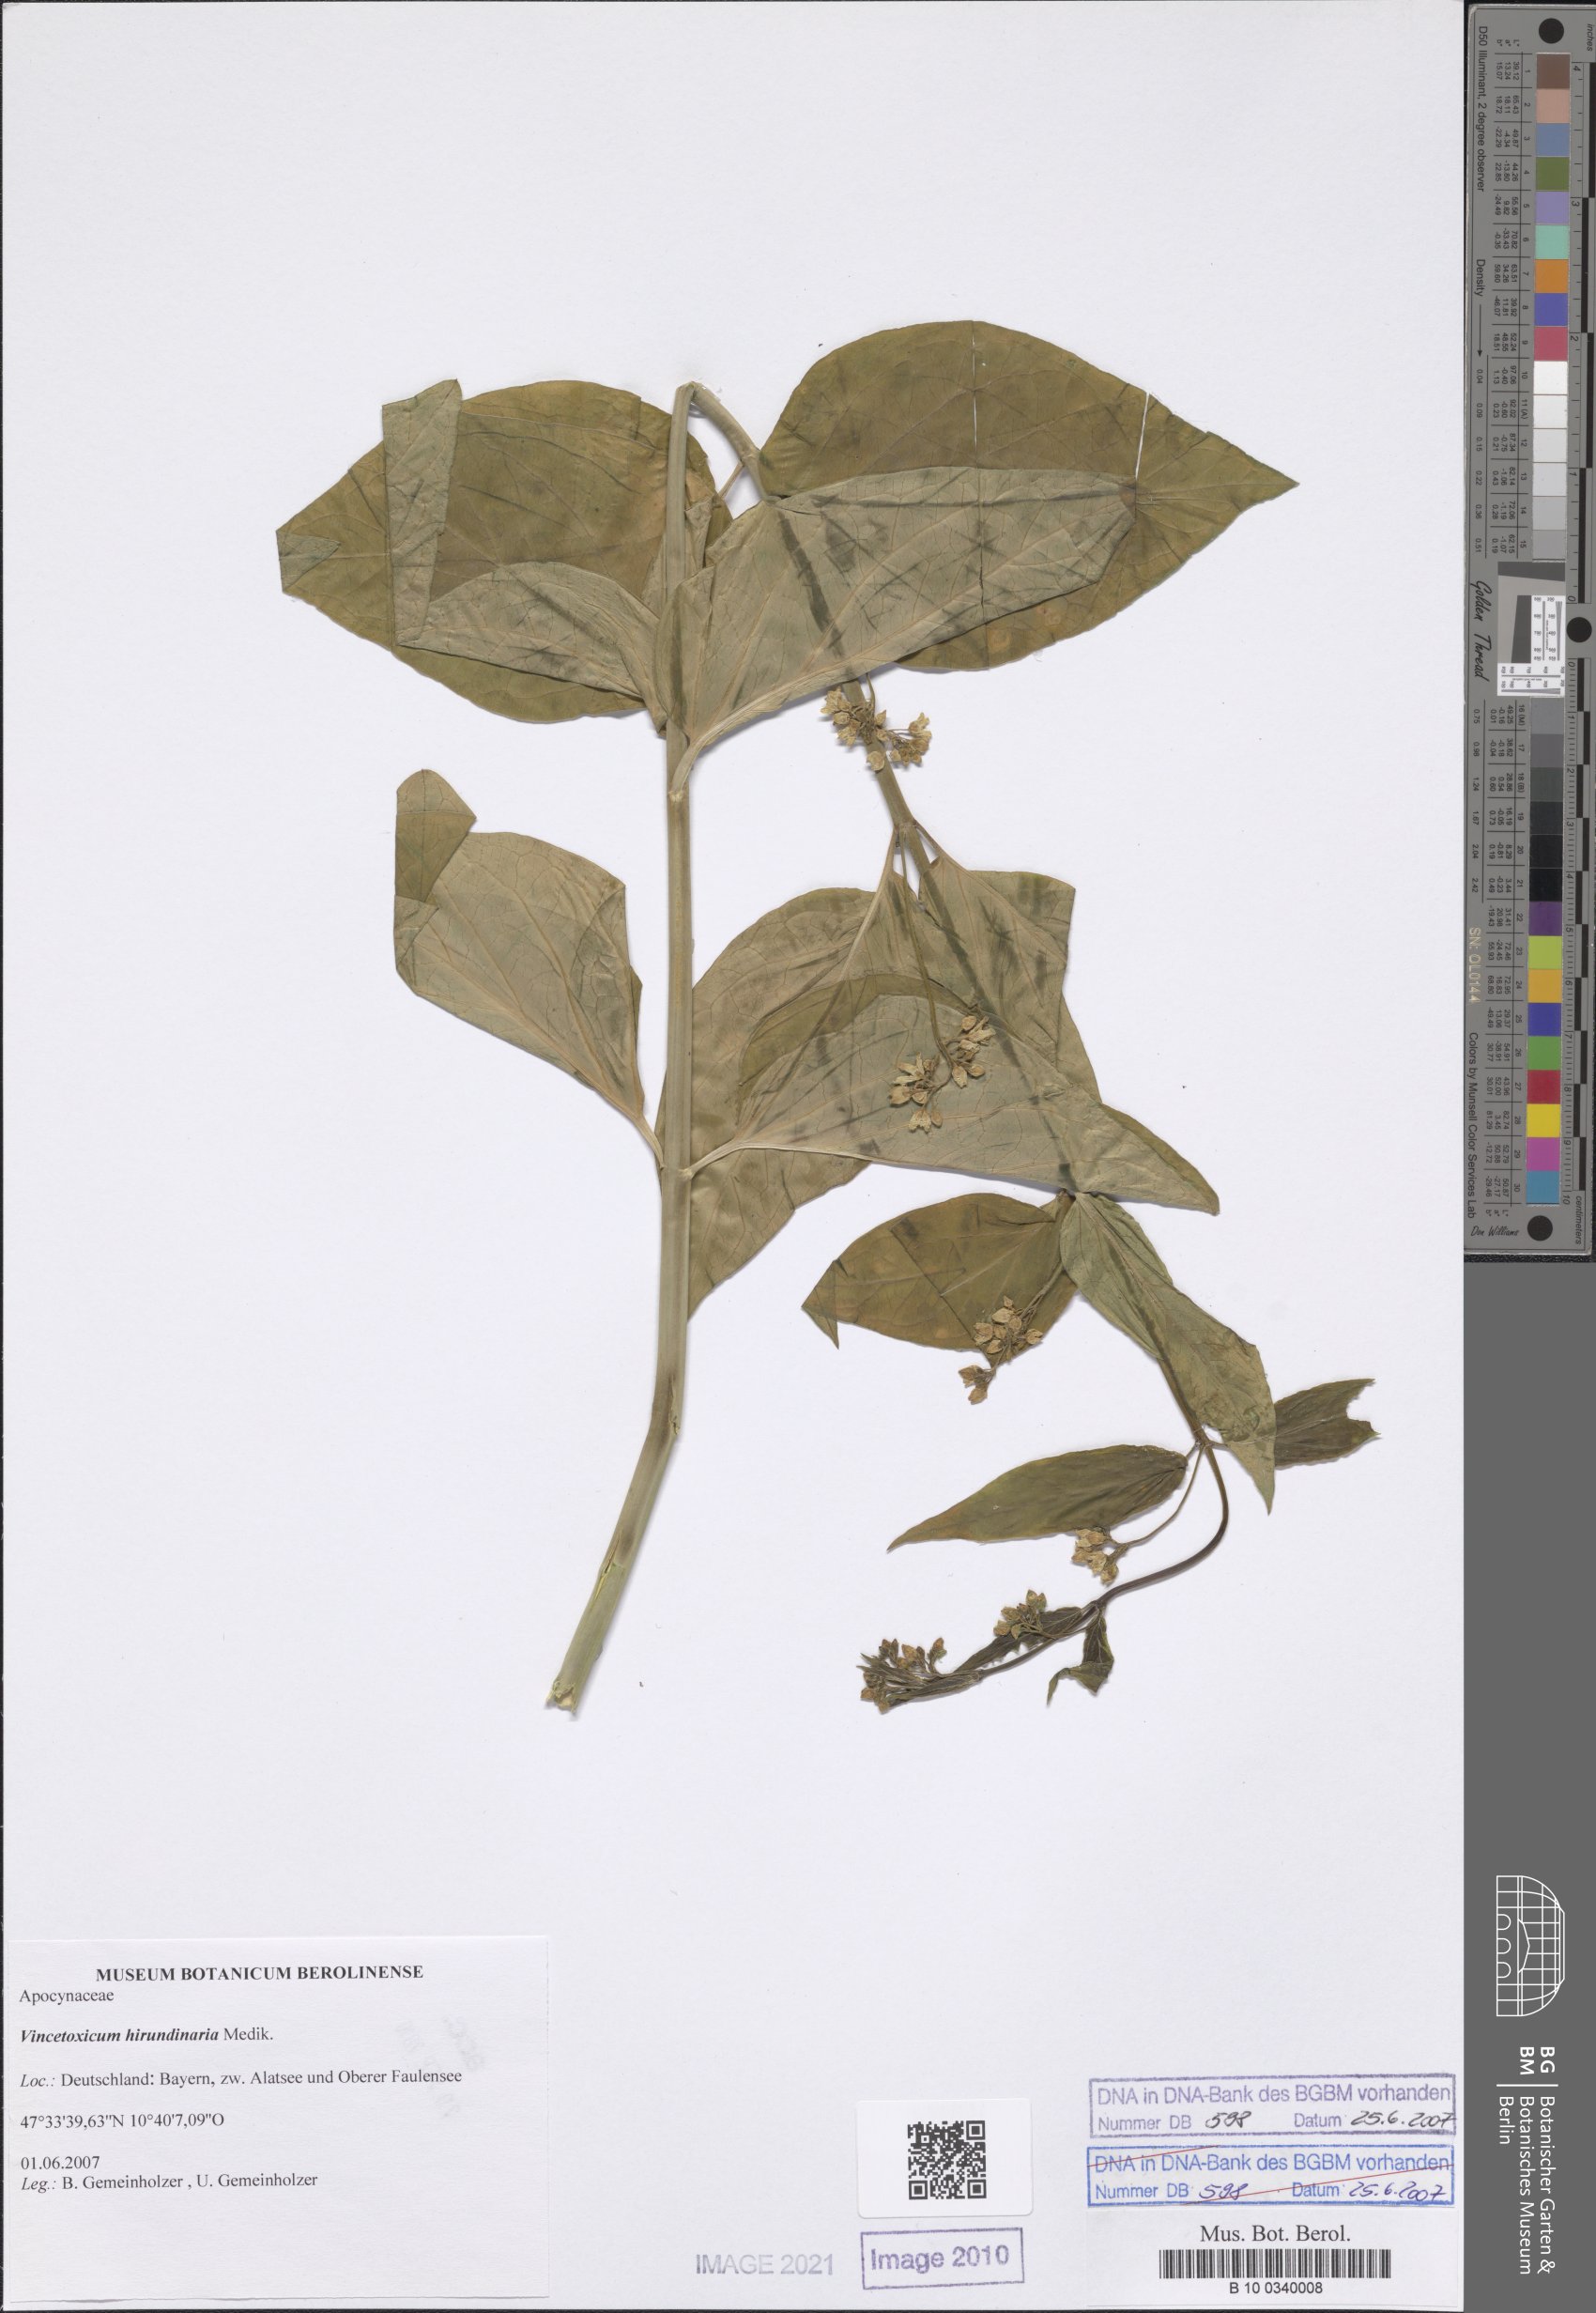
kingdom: Plantae
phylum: Tracheophyta
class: Magnoliopsida
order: Gentianales
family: Apocynaceae
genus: Vincetoxicum
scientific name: Vincetoxicum hirundinaria
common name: White swallowwort
